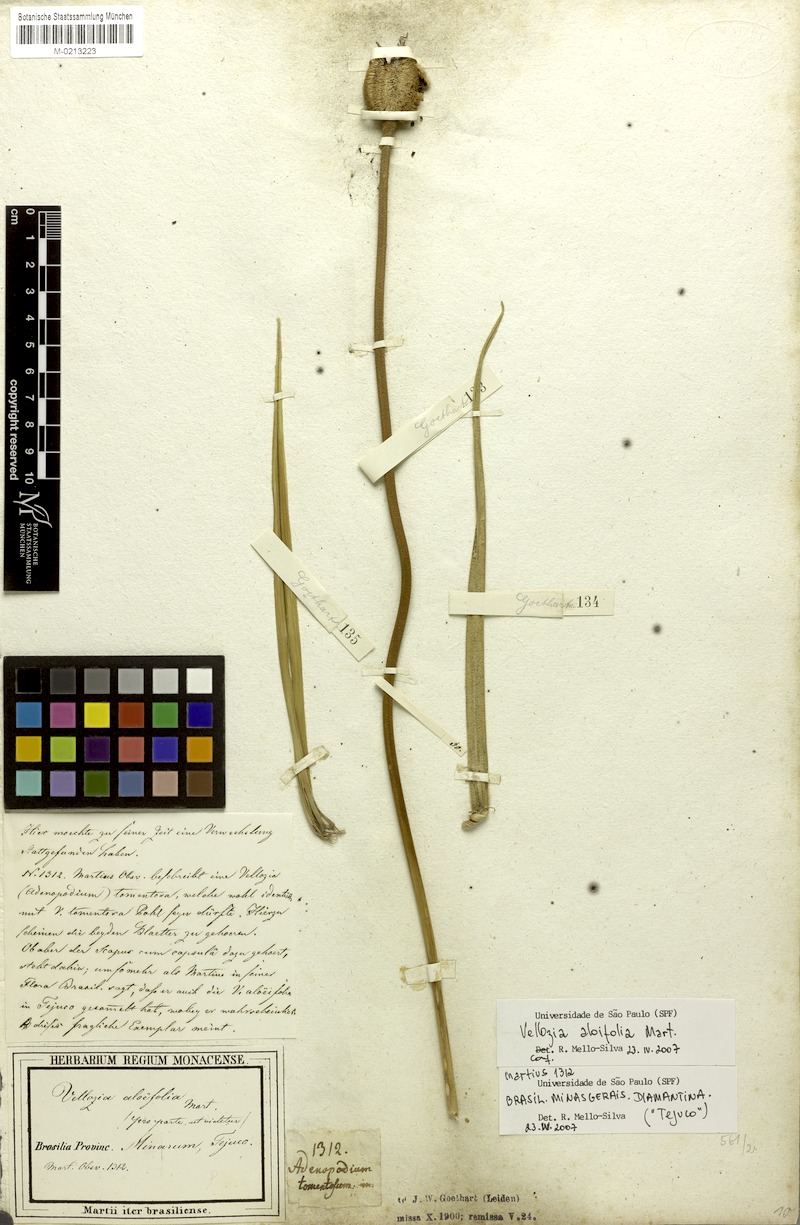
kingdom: Plantae
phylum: Tracheophyta
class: Liliopsida
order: Pandanales
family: Velloziaceae
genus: Vellozia
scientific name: Vellozia aloifolia
